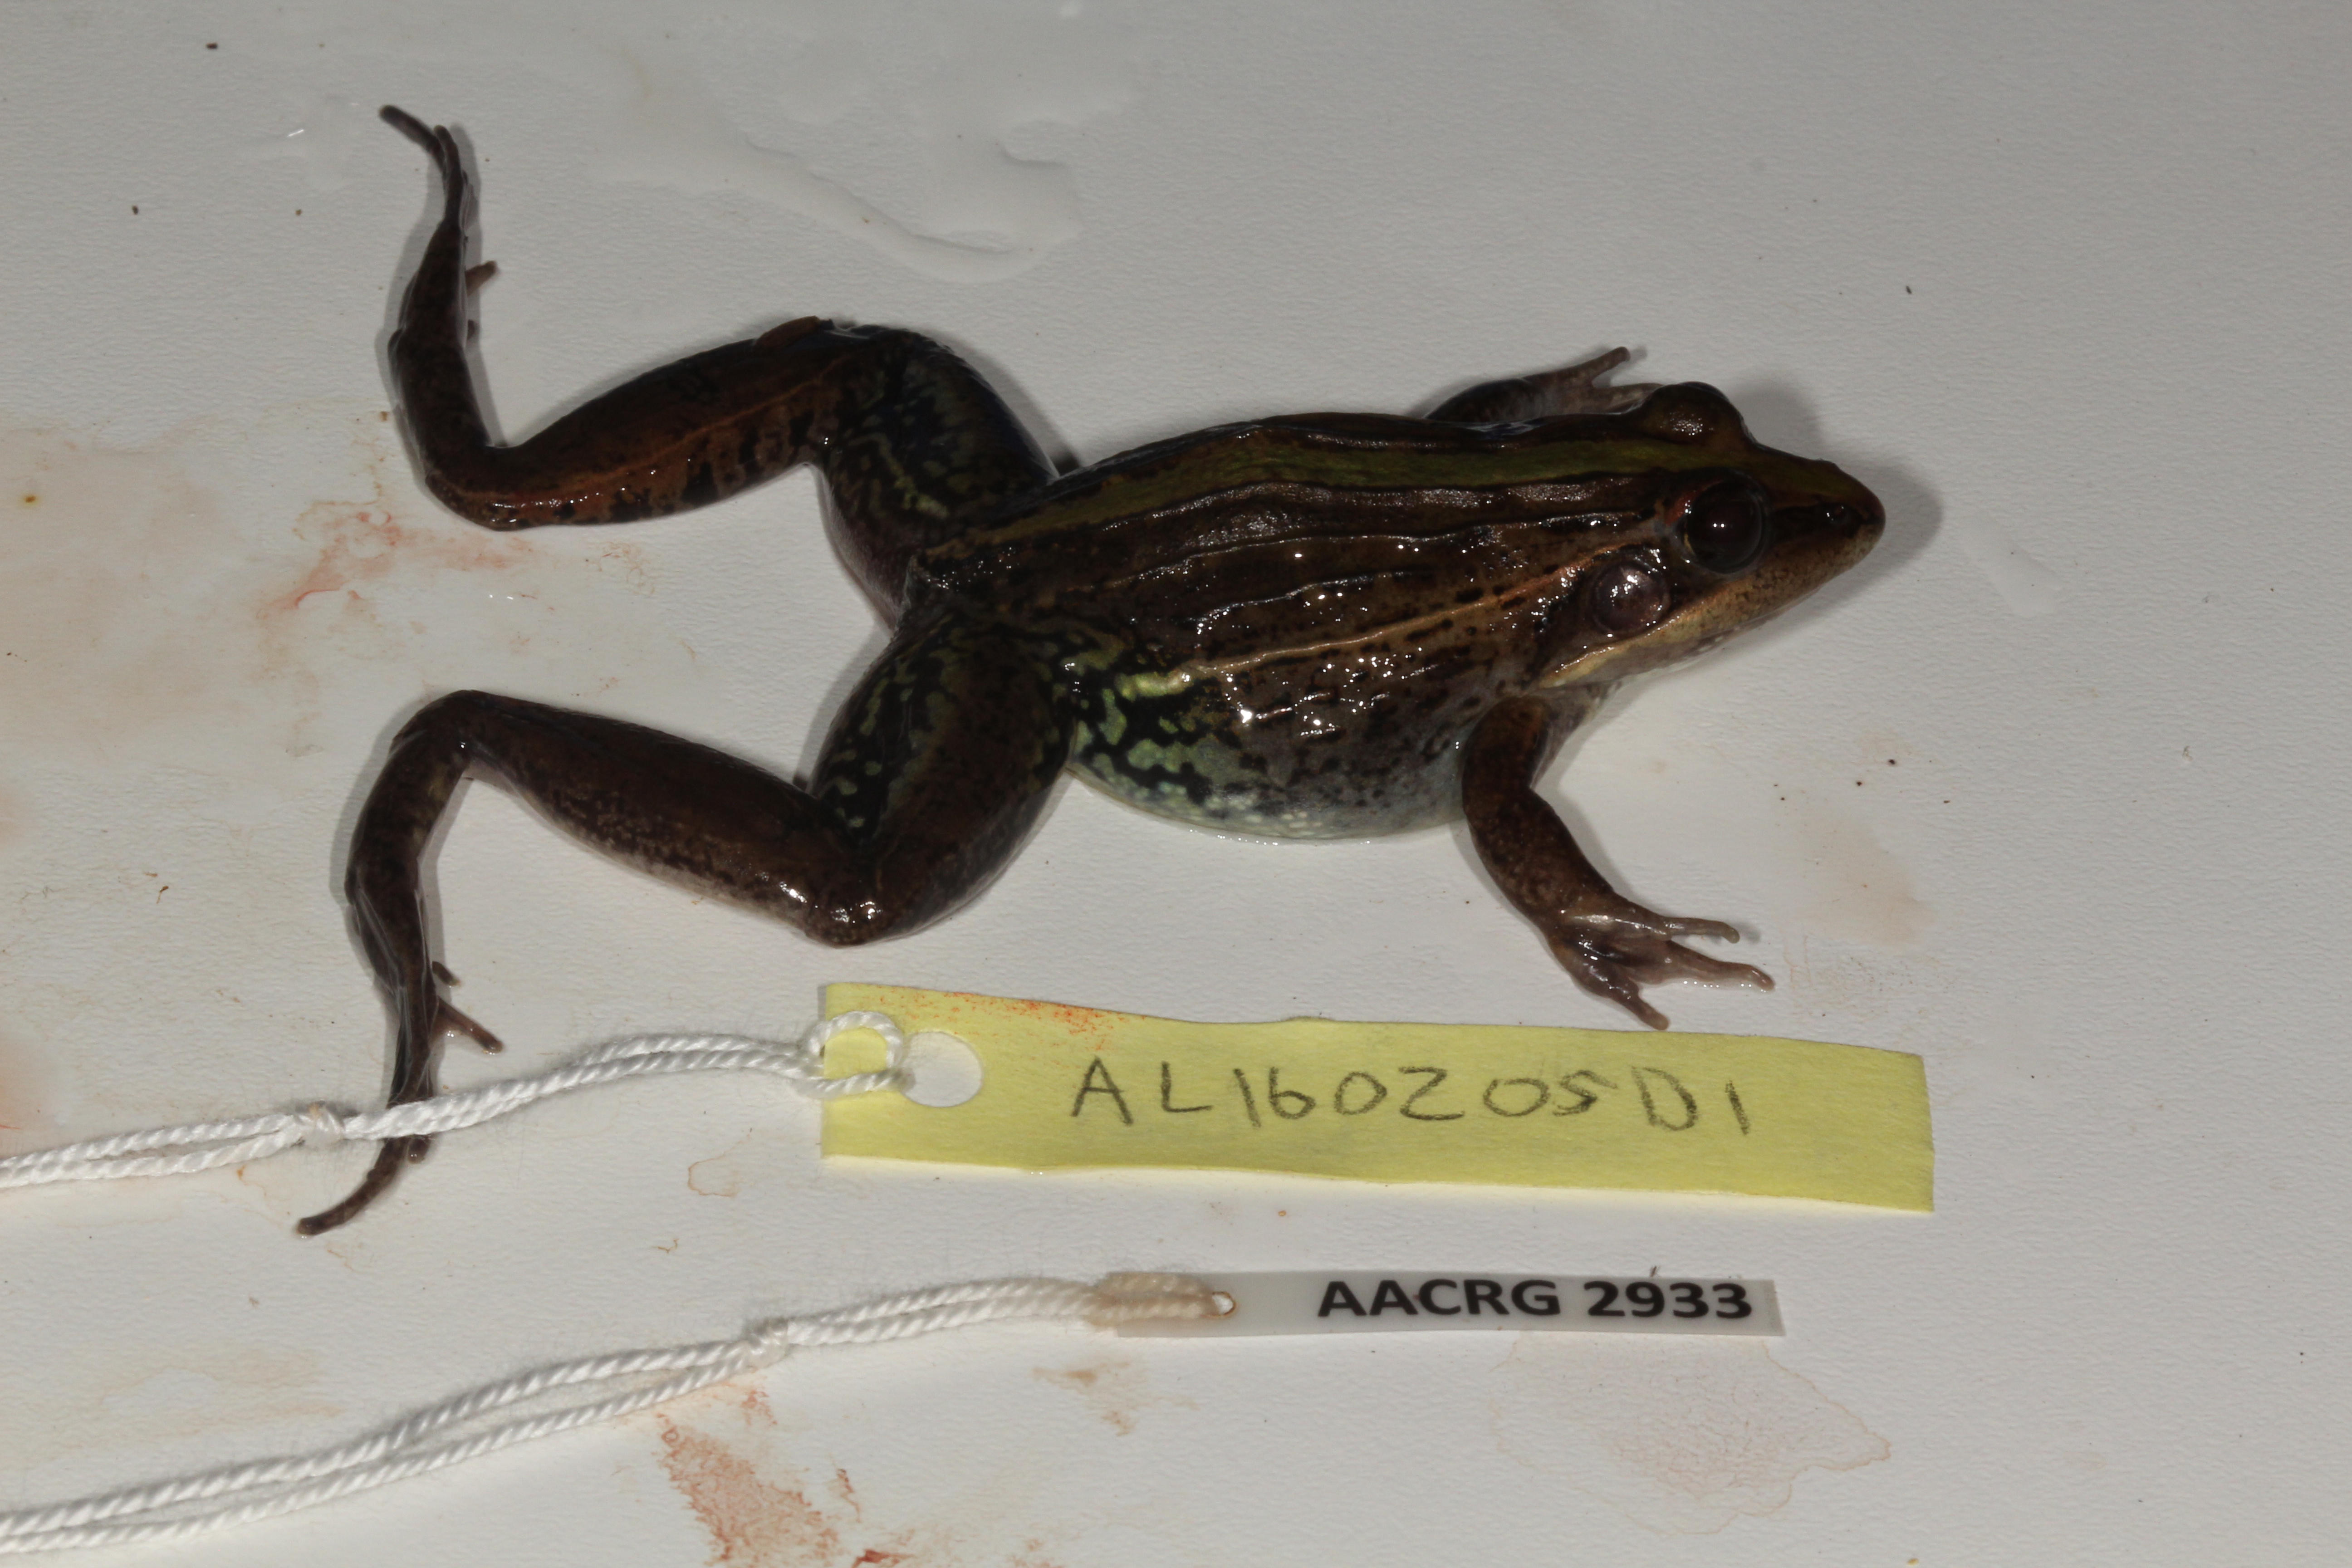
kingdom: Animalia
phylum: Chordata
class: Amphibia
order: Anura
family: Ptychadenidae
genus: Ptychadena
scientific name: Ptychadena mascareniensis
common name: Mascarene grass frog
